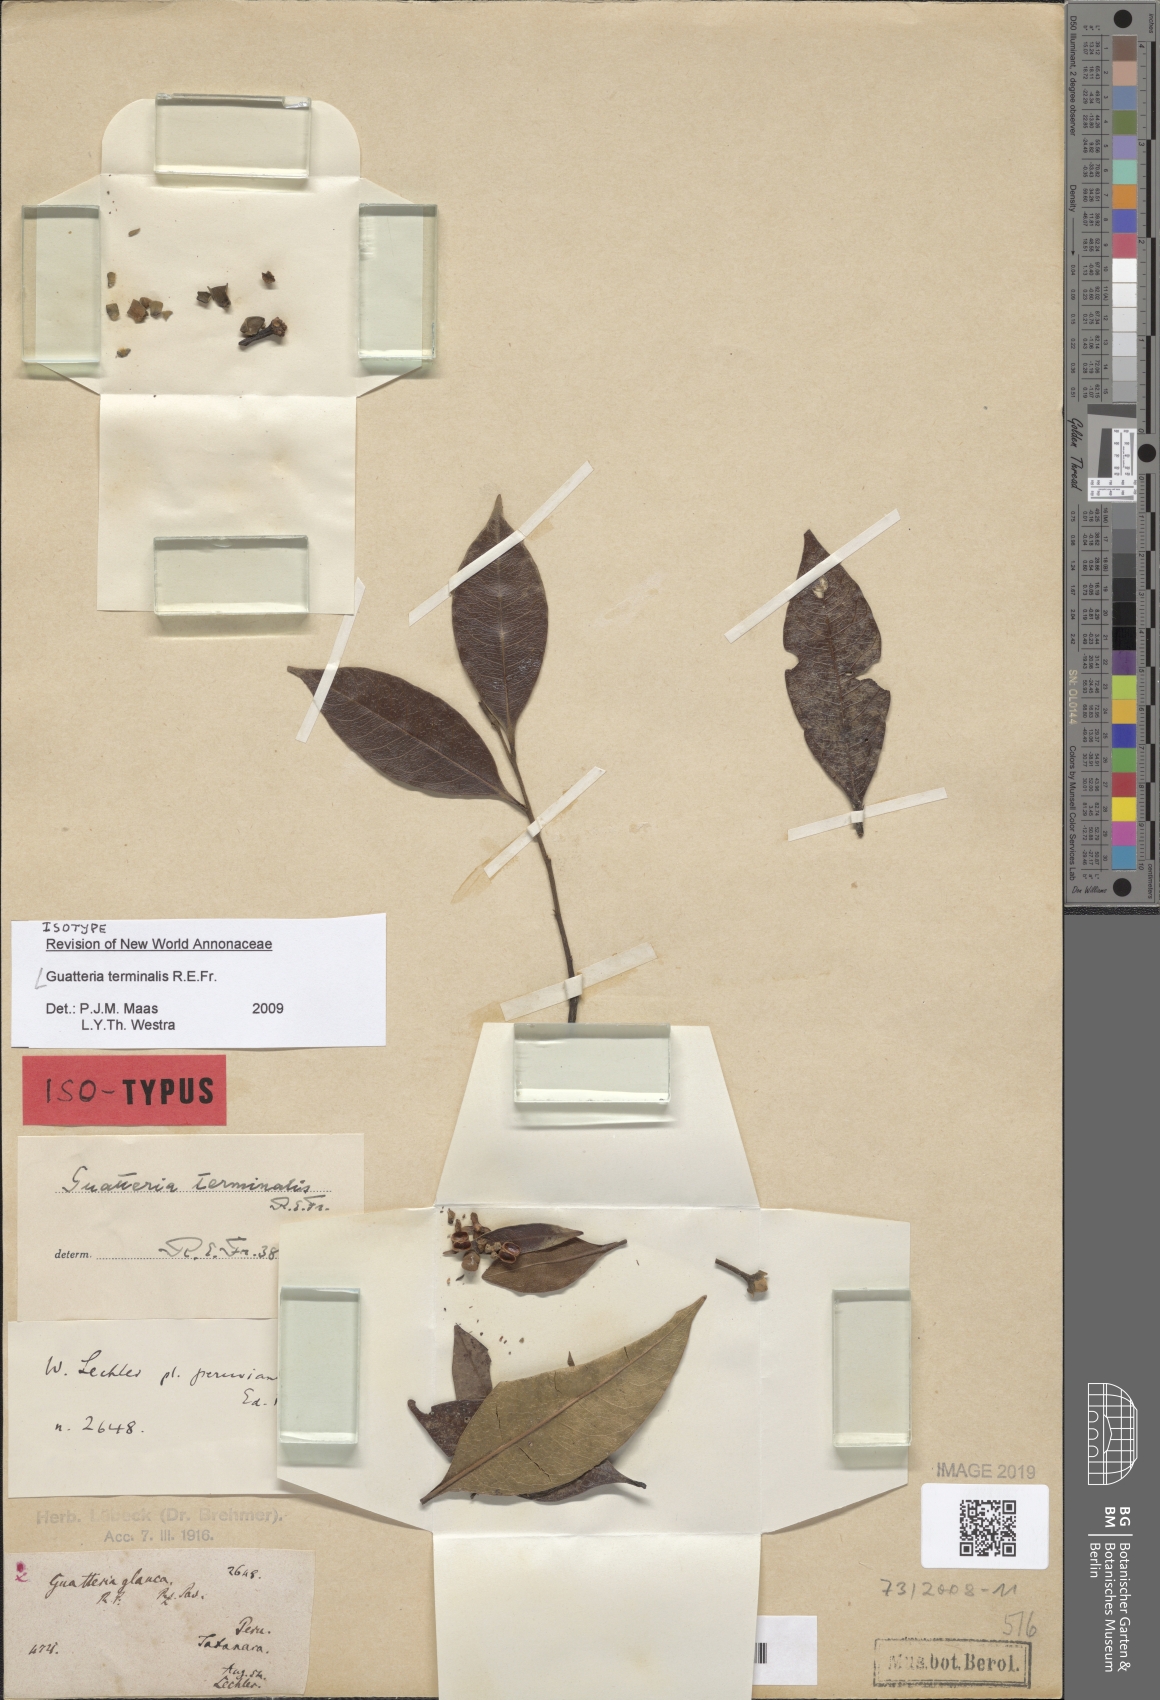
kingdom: Plantae
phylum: Tracheophyta
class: Magnoliopsida
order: Magnoliales
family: Annonaceae
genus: Guatteria
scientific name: Guatteria terminalis
